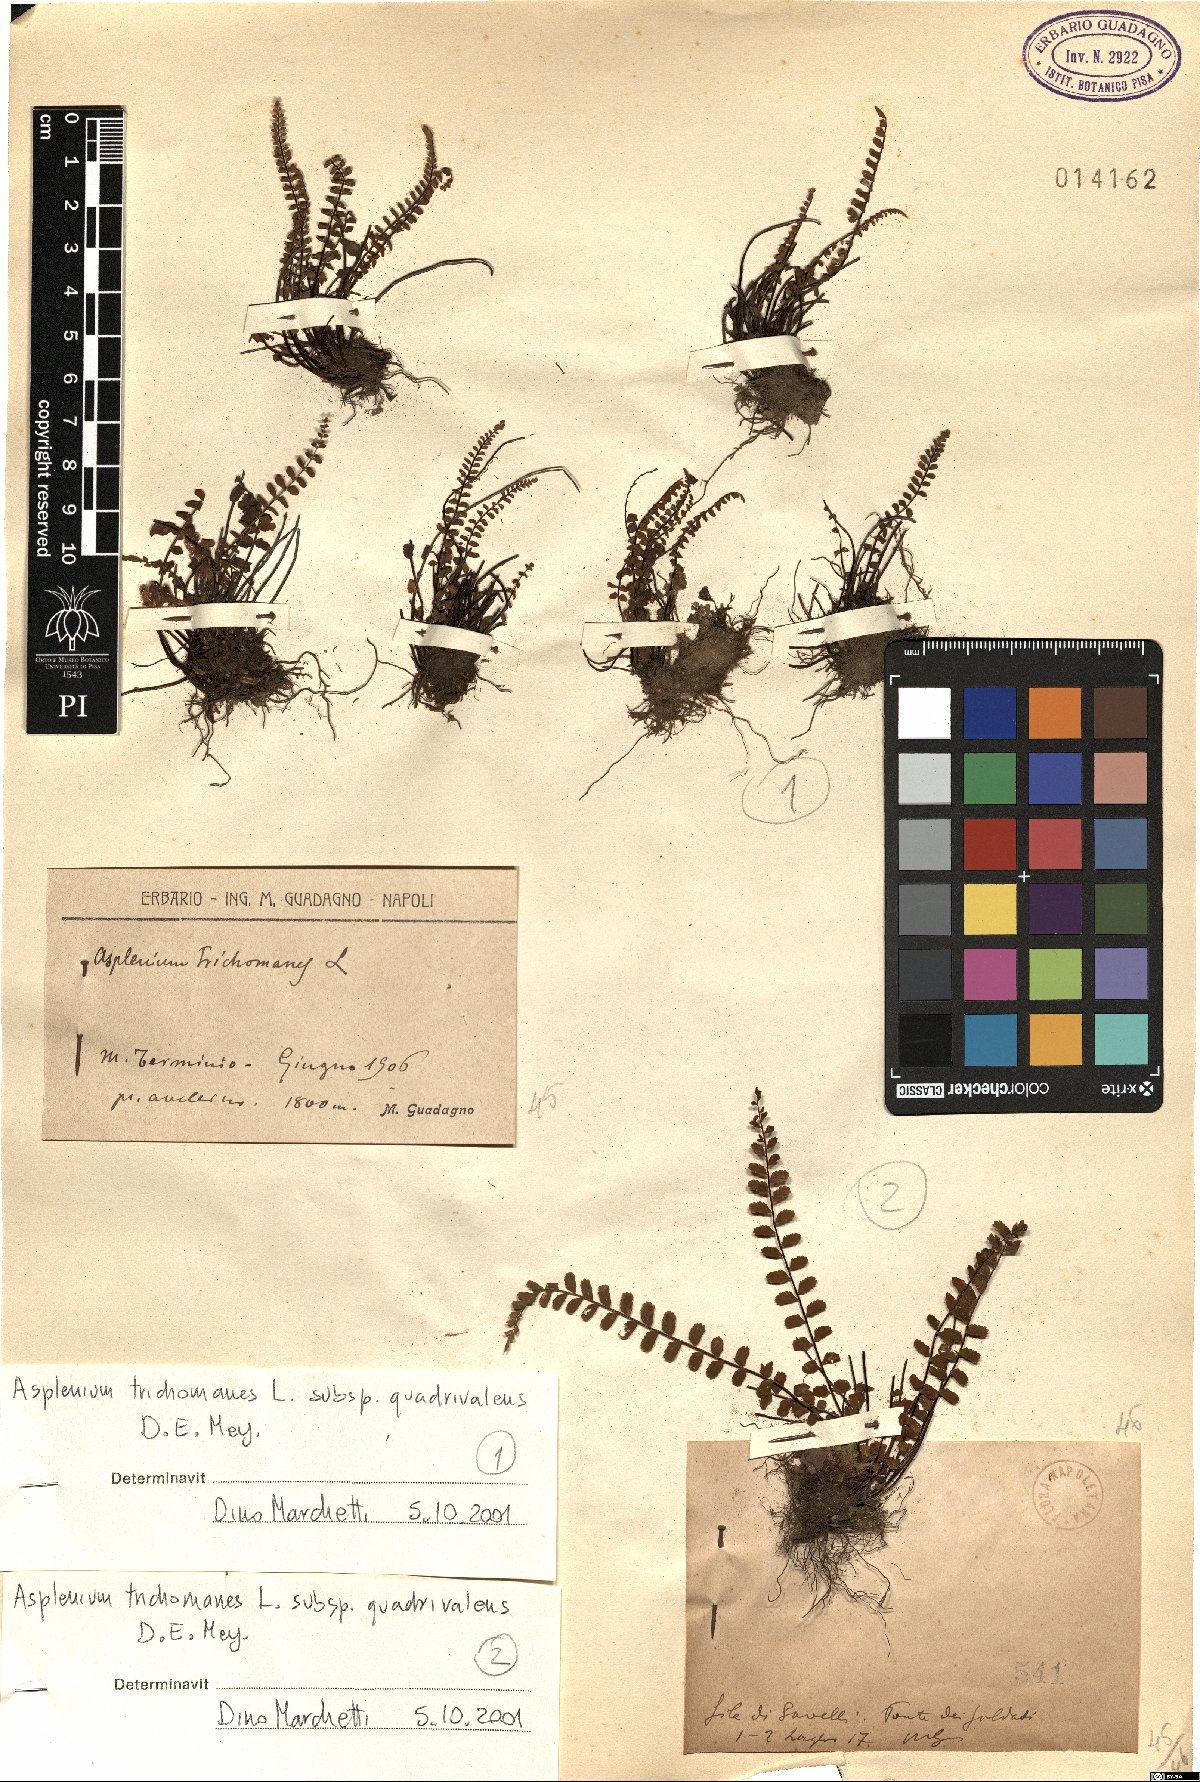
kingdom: Plantae
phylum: Tracheophyta
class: Polypodiopsida
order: Polypodiales
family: Aspleniaceae
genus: Asplenium
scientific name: Asplenium quadrivalens
